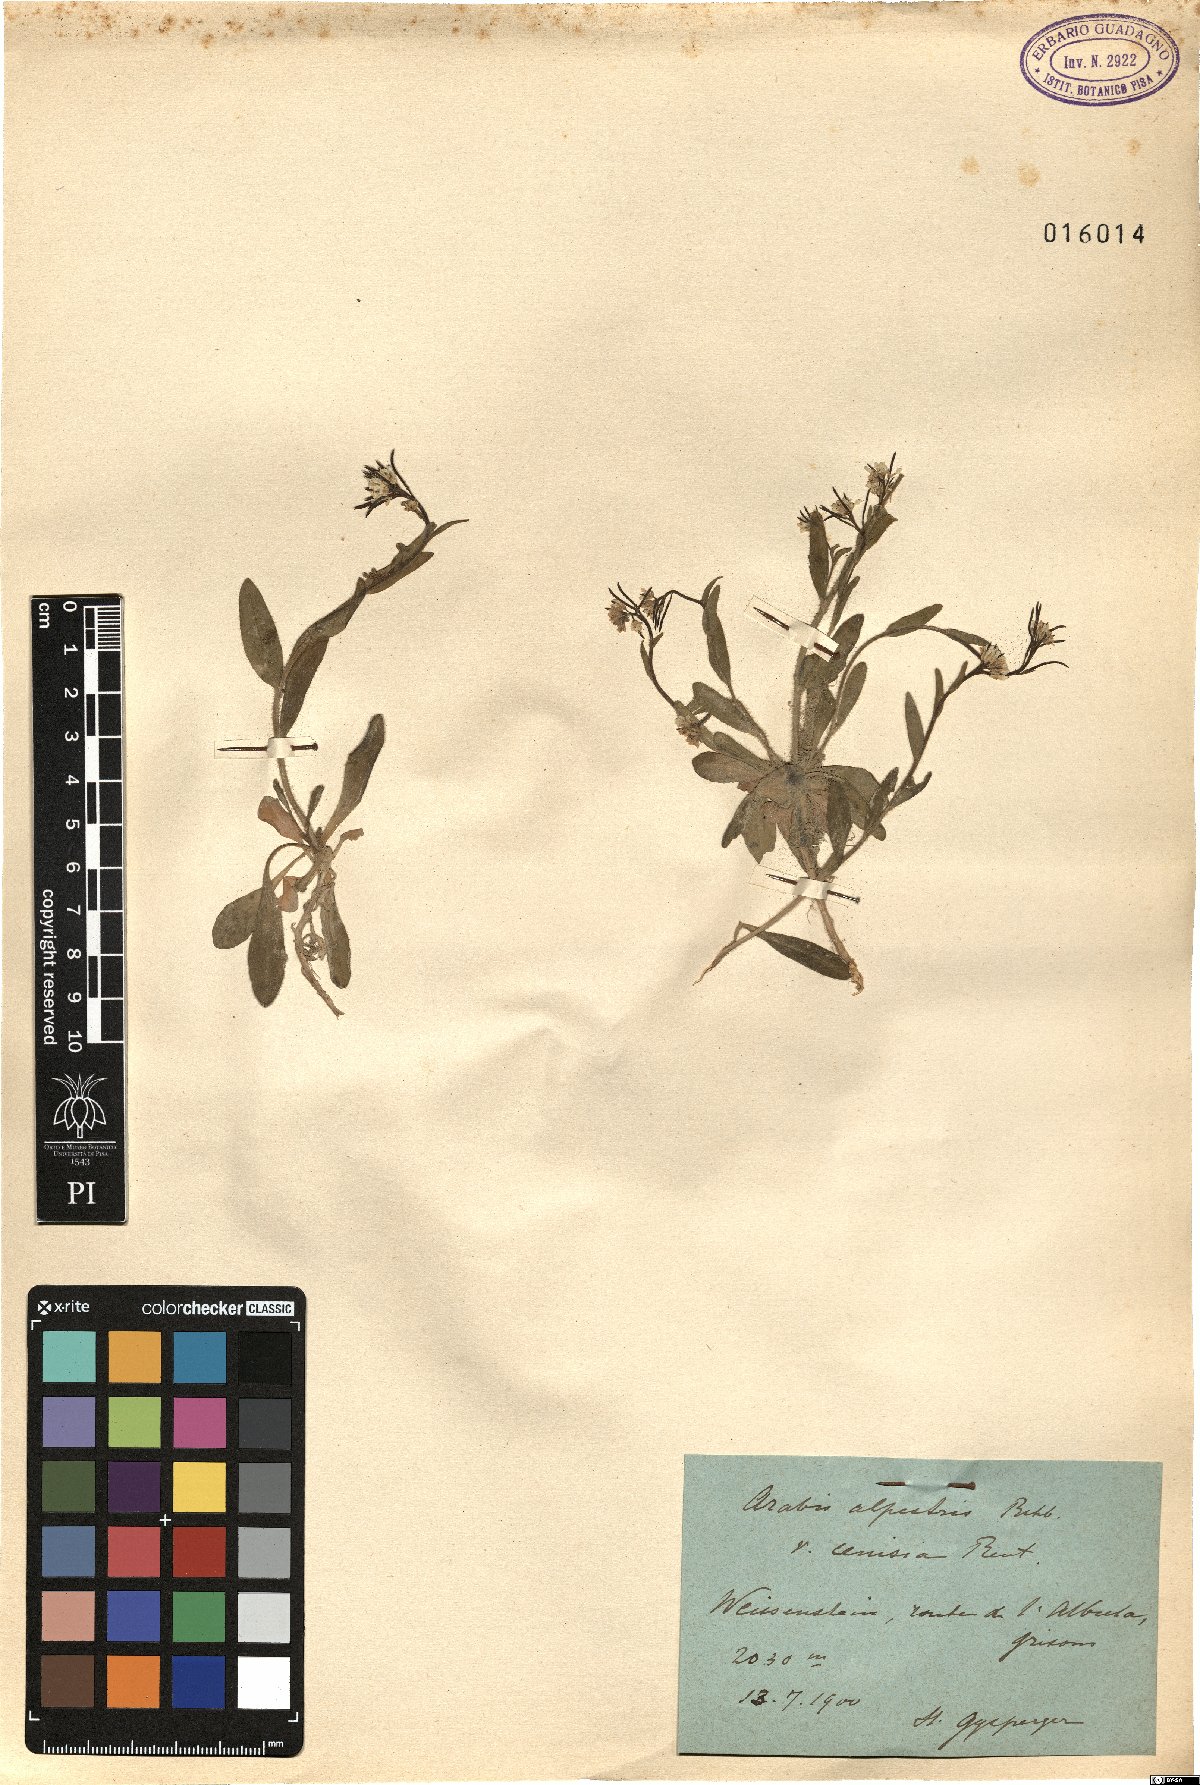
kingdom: Plantae
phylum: Tracheophyta
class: Magnoliopsida
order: Brassicales
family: Brassicaceae
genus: Arabis
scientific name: Arabis ciliata
